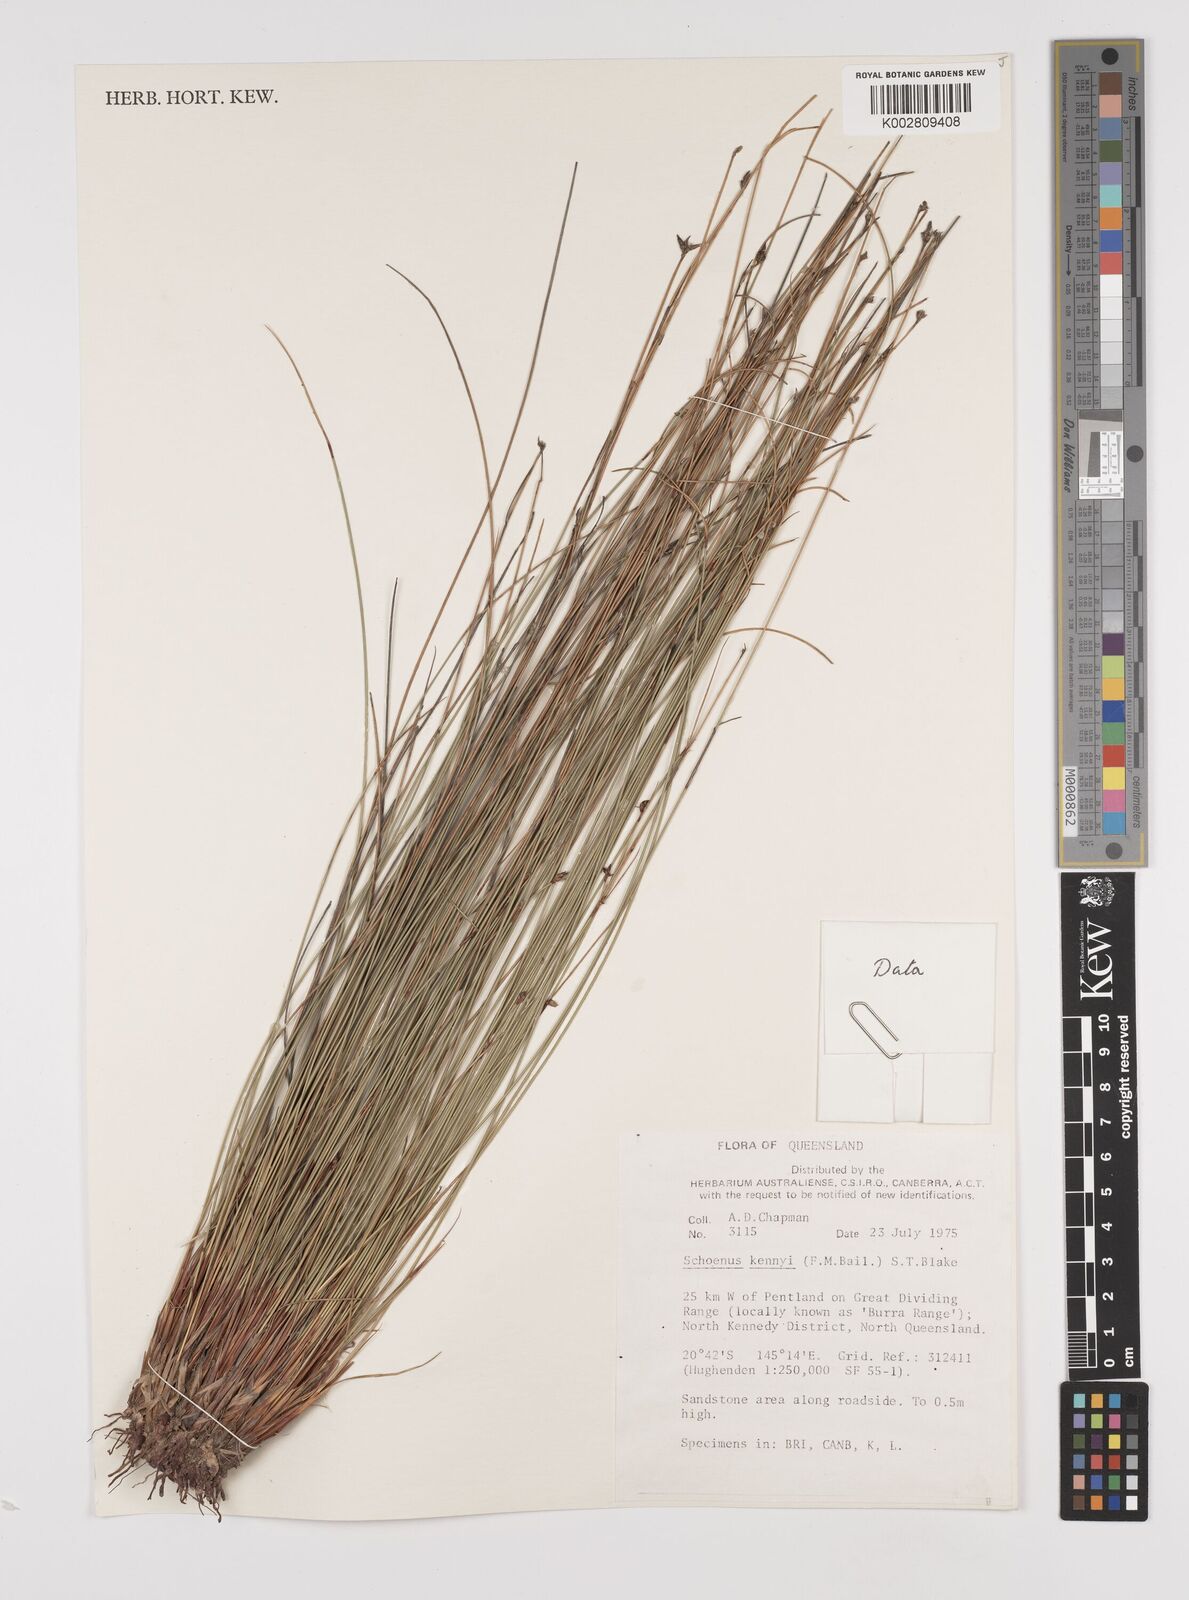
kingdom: Plantae
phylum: Tracheophyta
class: Liliopsida
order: Poales
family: Cyperaceae
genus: Schoenus
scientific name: Schoenus kennyi
